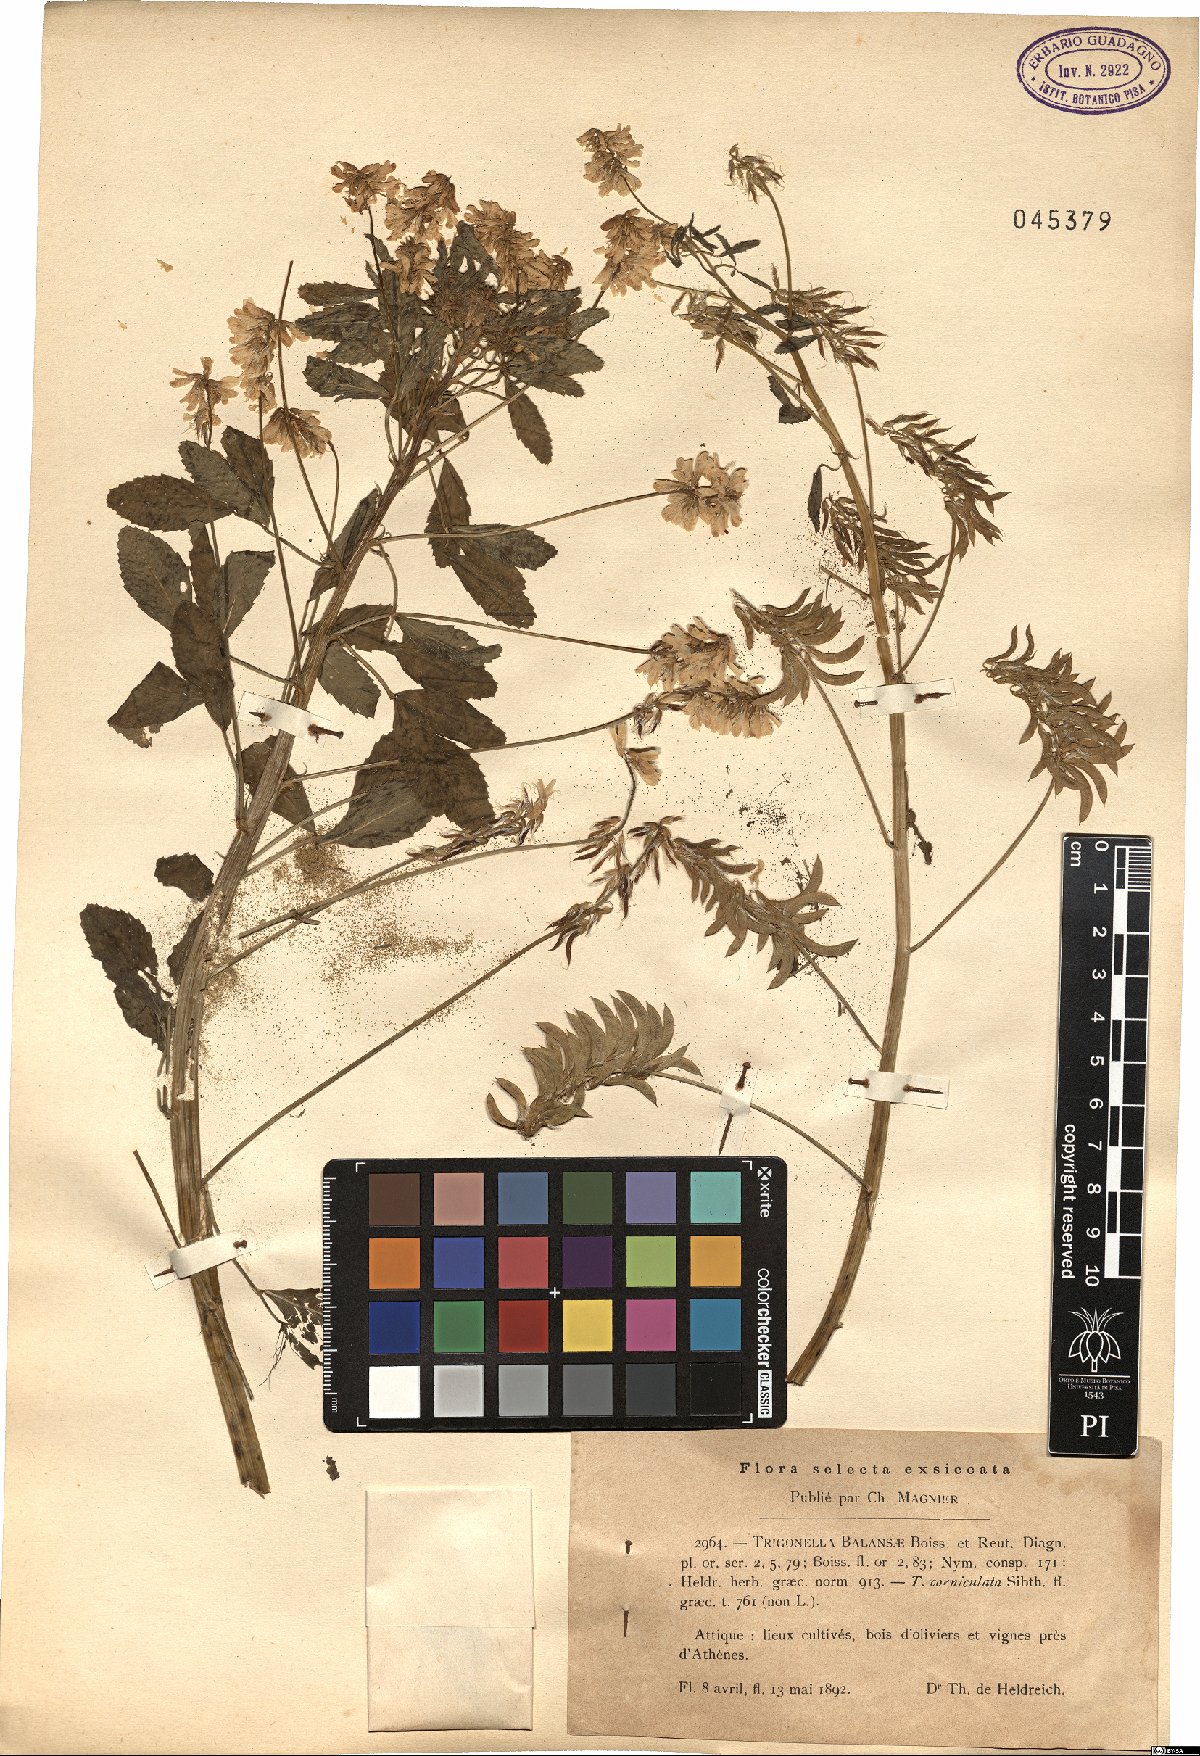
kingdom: Plantae
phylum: Tracheophyta
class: Magnoliopsida
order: Fabales
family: Fabaceae
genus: Trigonella
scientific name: Trigonella balansae
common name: Sickle-fruited fenugreek
